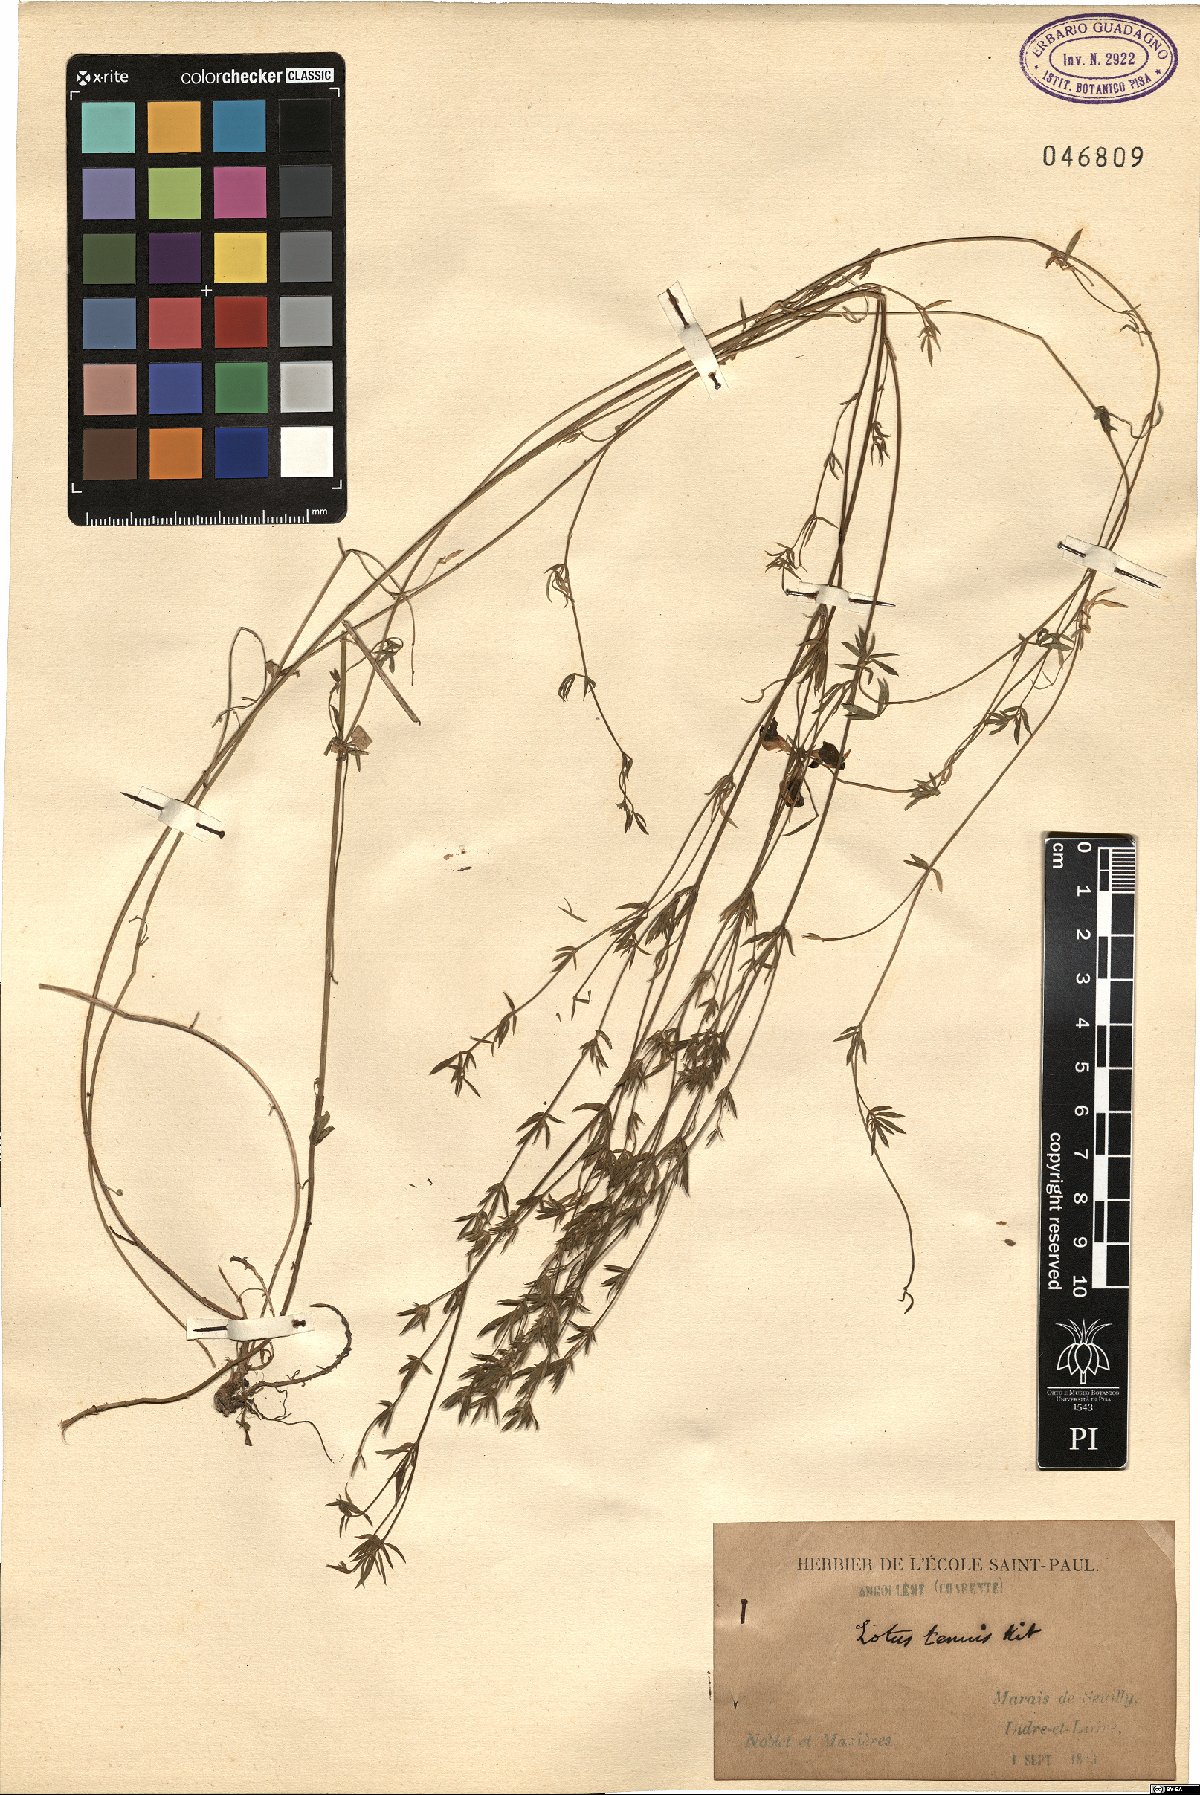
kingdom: Plantae
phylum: Tracheophyta
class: Magnoliopsida
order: Fabales
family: Fabaceae
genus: Lotus
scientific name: Lotus tenuis
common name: Narrow-leaved bird's-foot-trefoil
